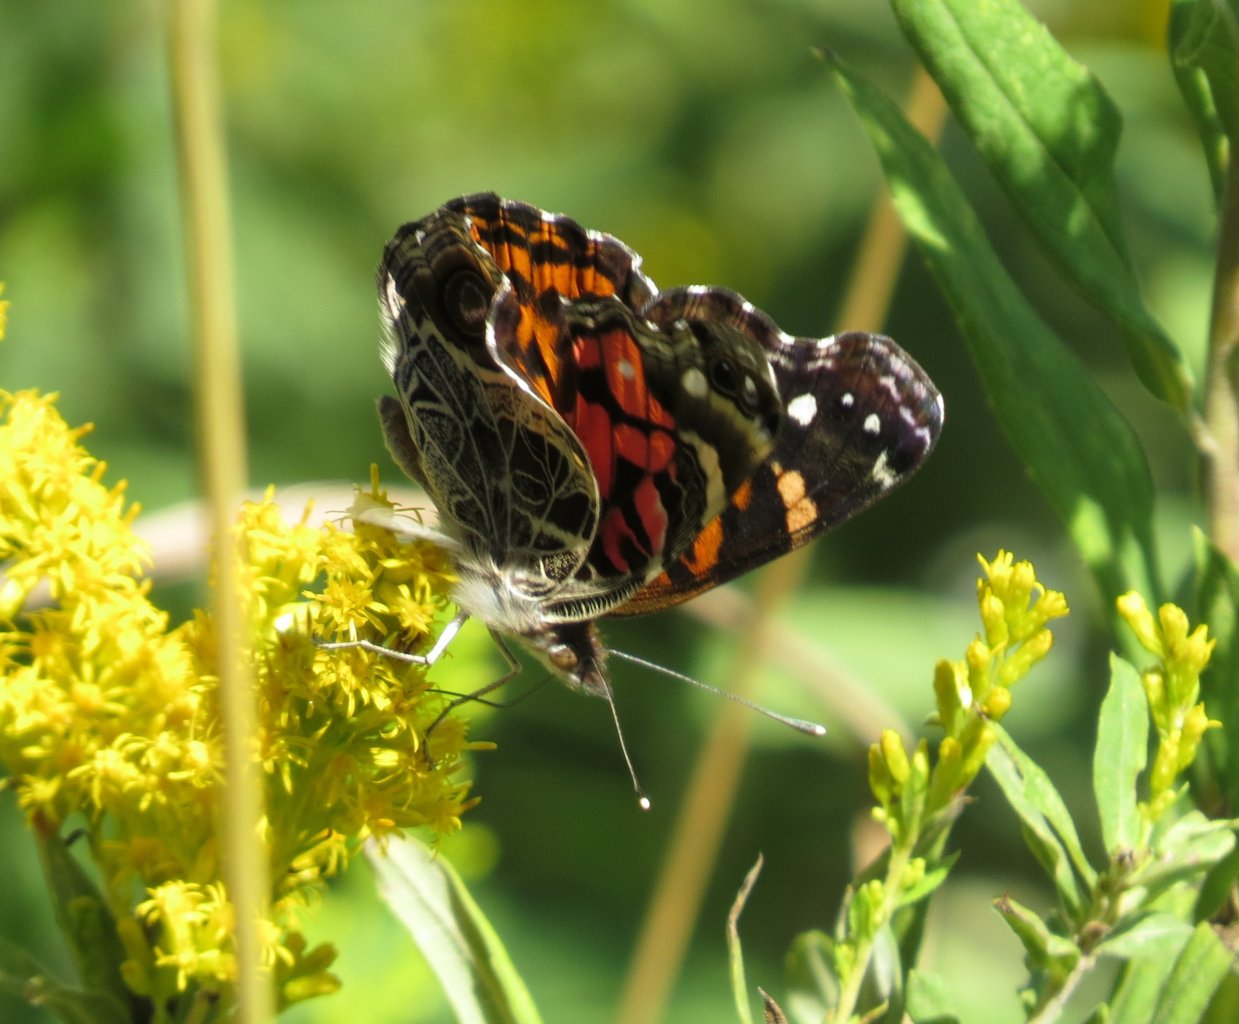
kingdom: Animalia
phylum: Arthropoda
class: Insecta
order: Lepidoptera
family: Nymphalidae
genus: Vanessa
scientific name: Vanessa virginiensis
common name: American Lady
